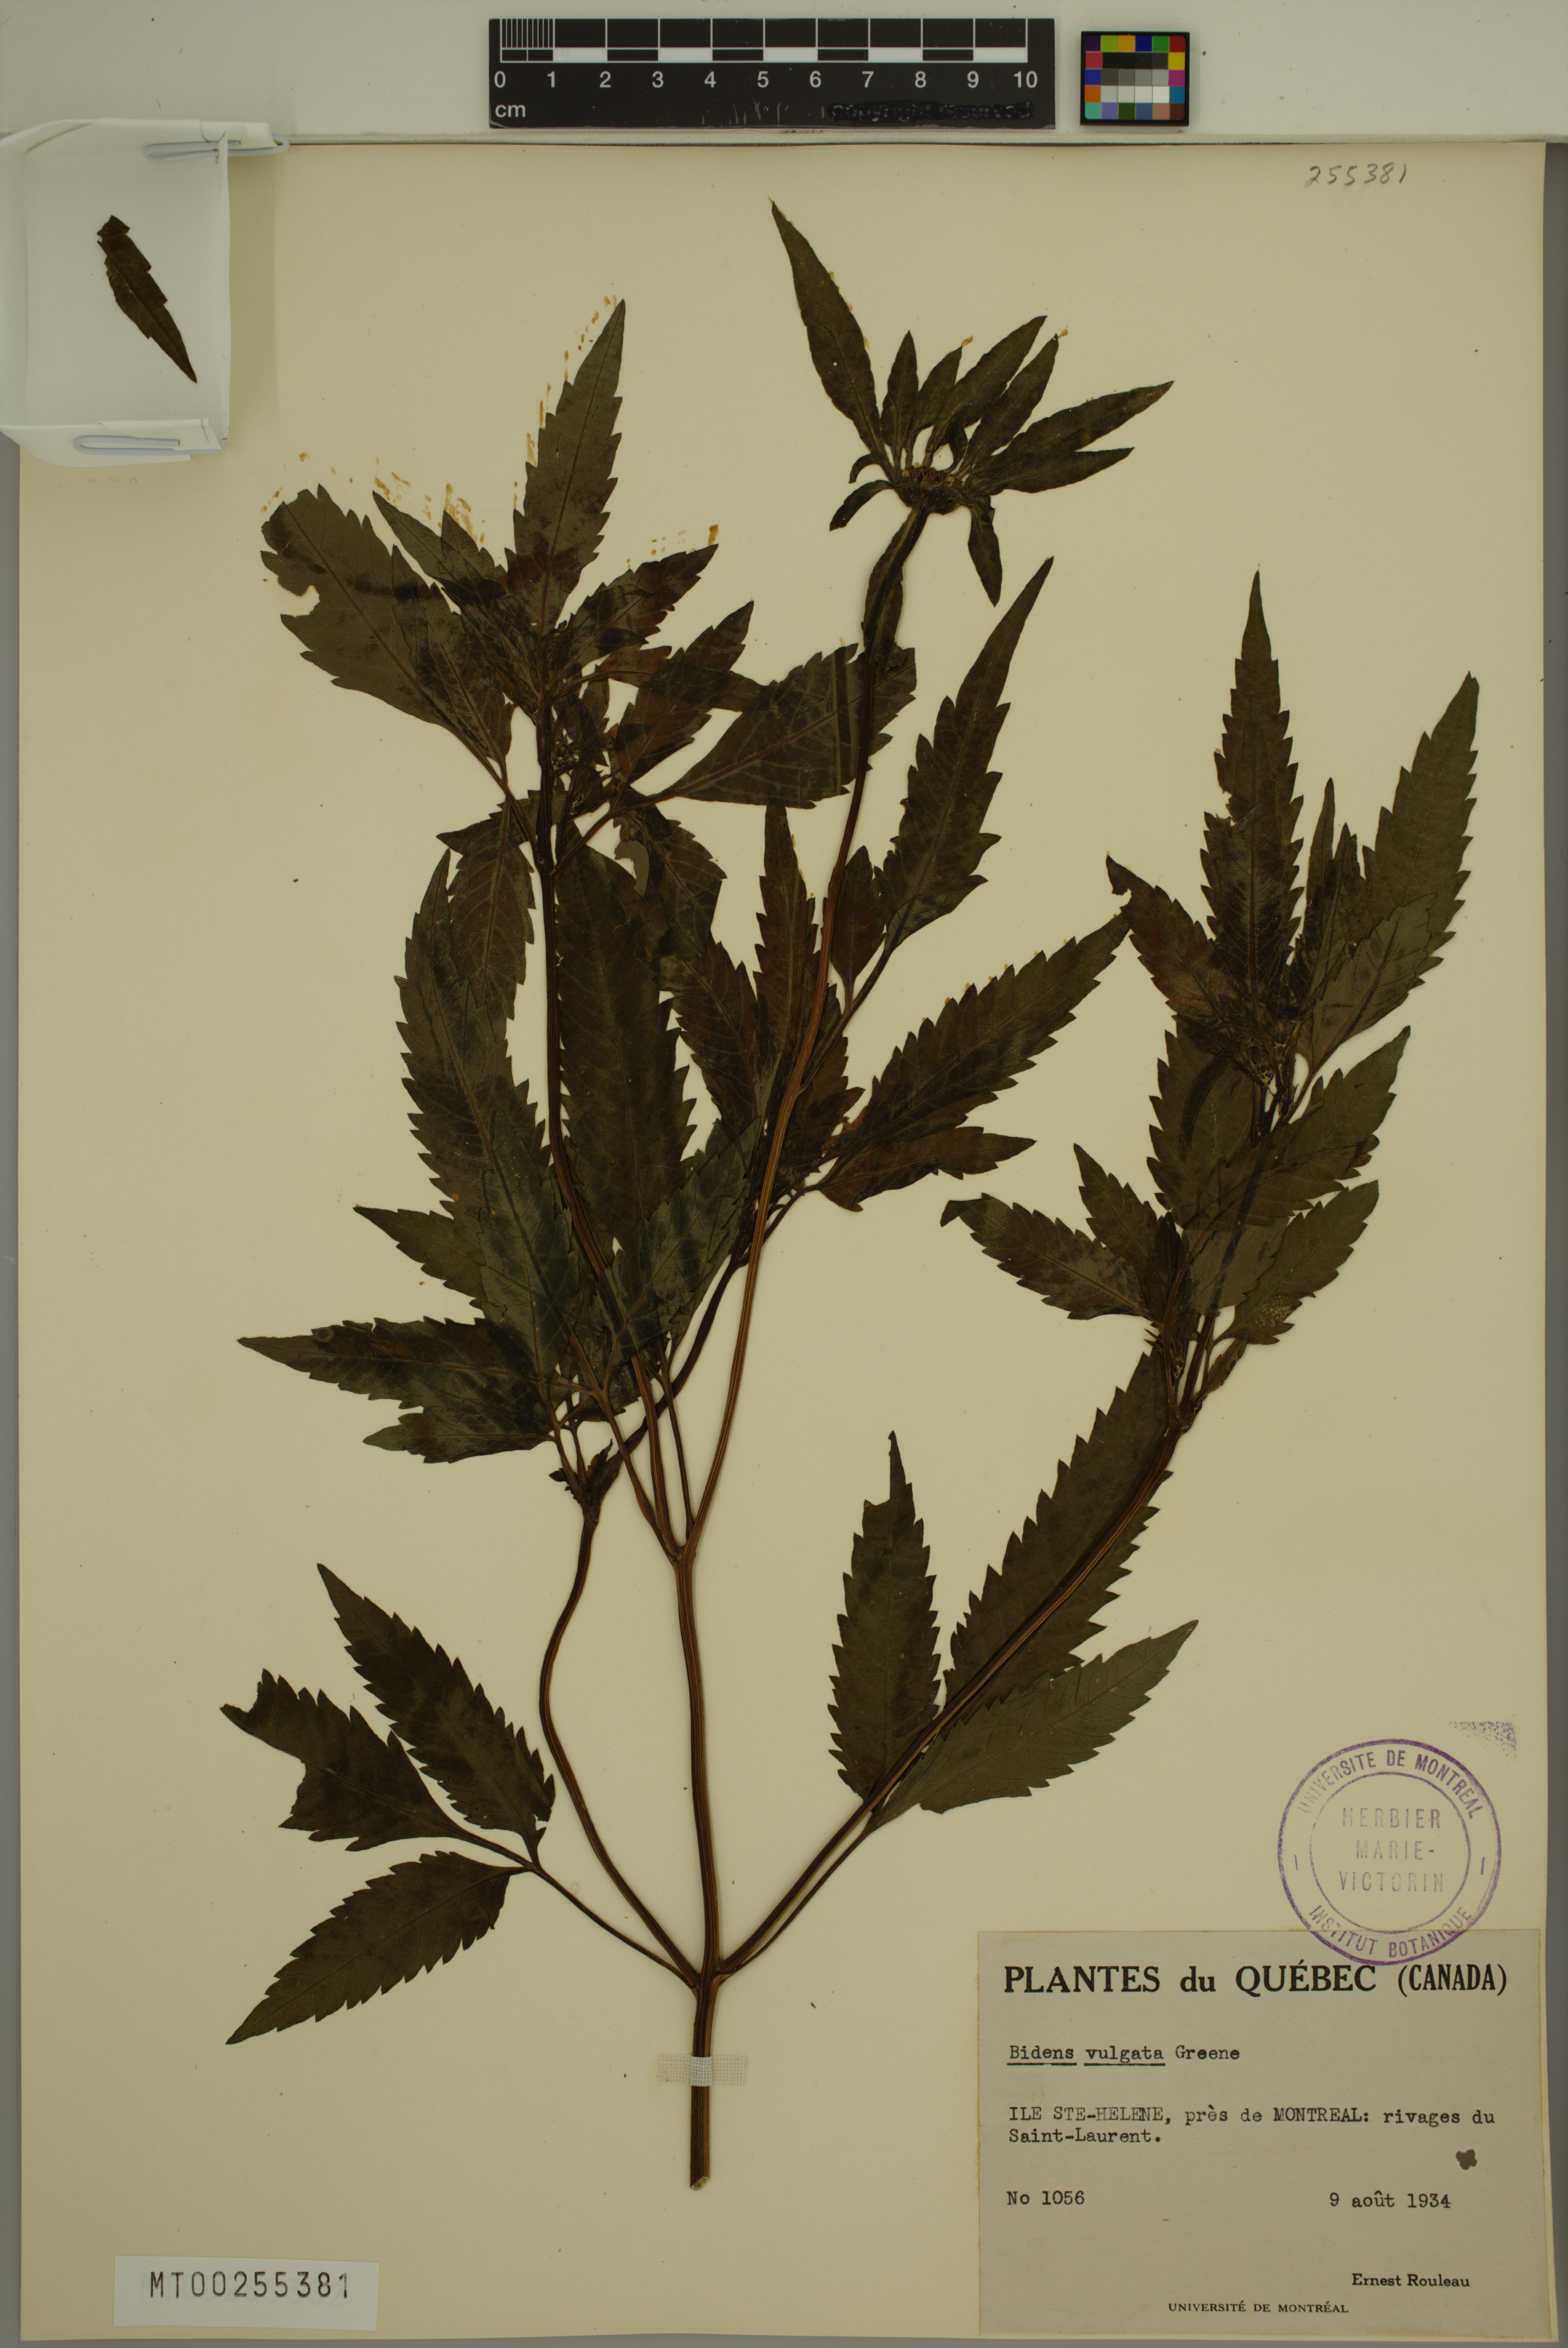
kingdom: Plantae
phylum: Tracheophyta
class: Magnoliopsida
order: Asterales
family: Asteraceae
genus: Bidens
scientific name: Bidens vulgata
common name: Tall beggarticks
